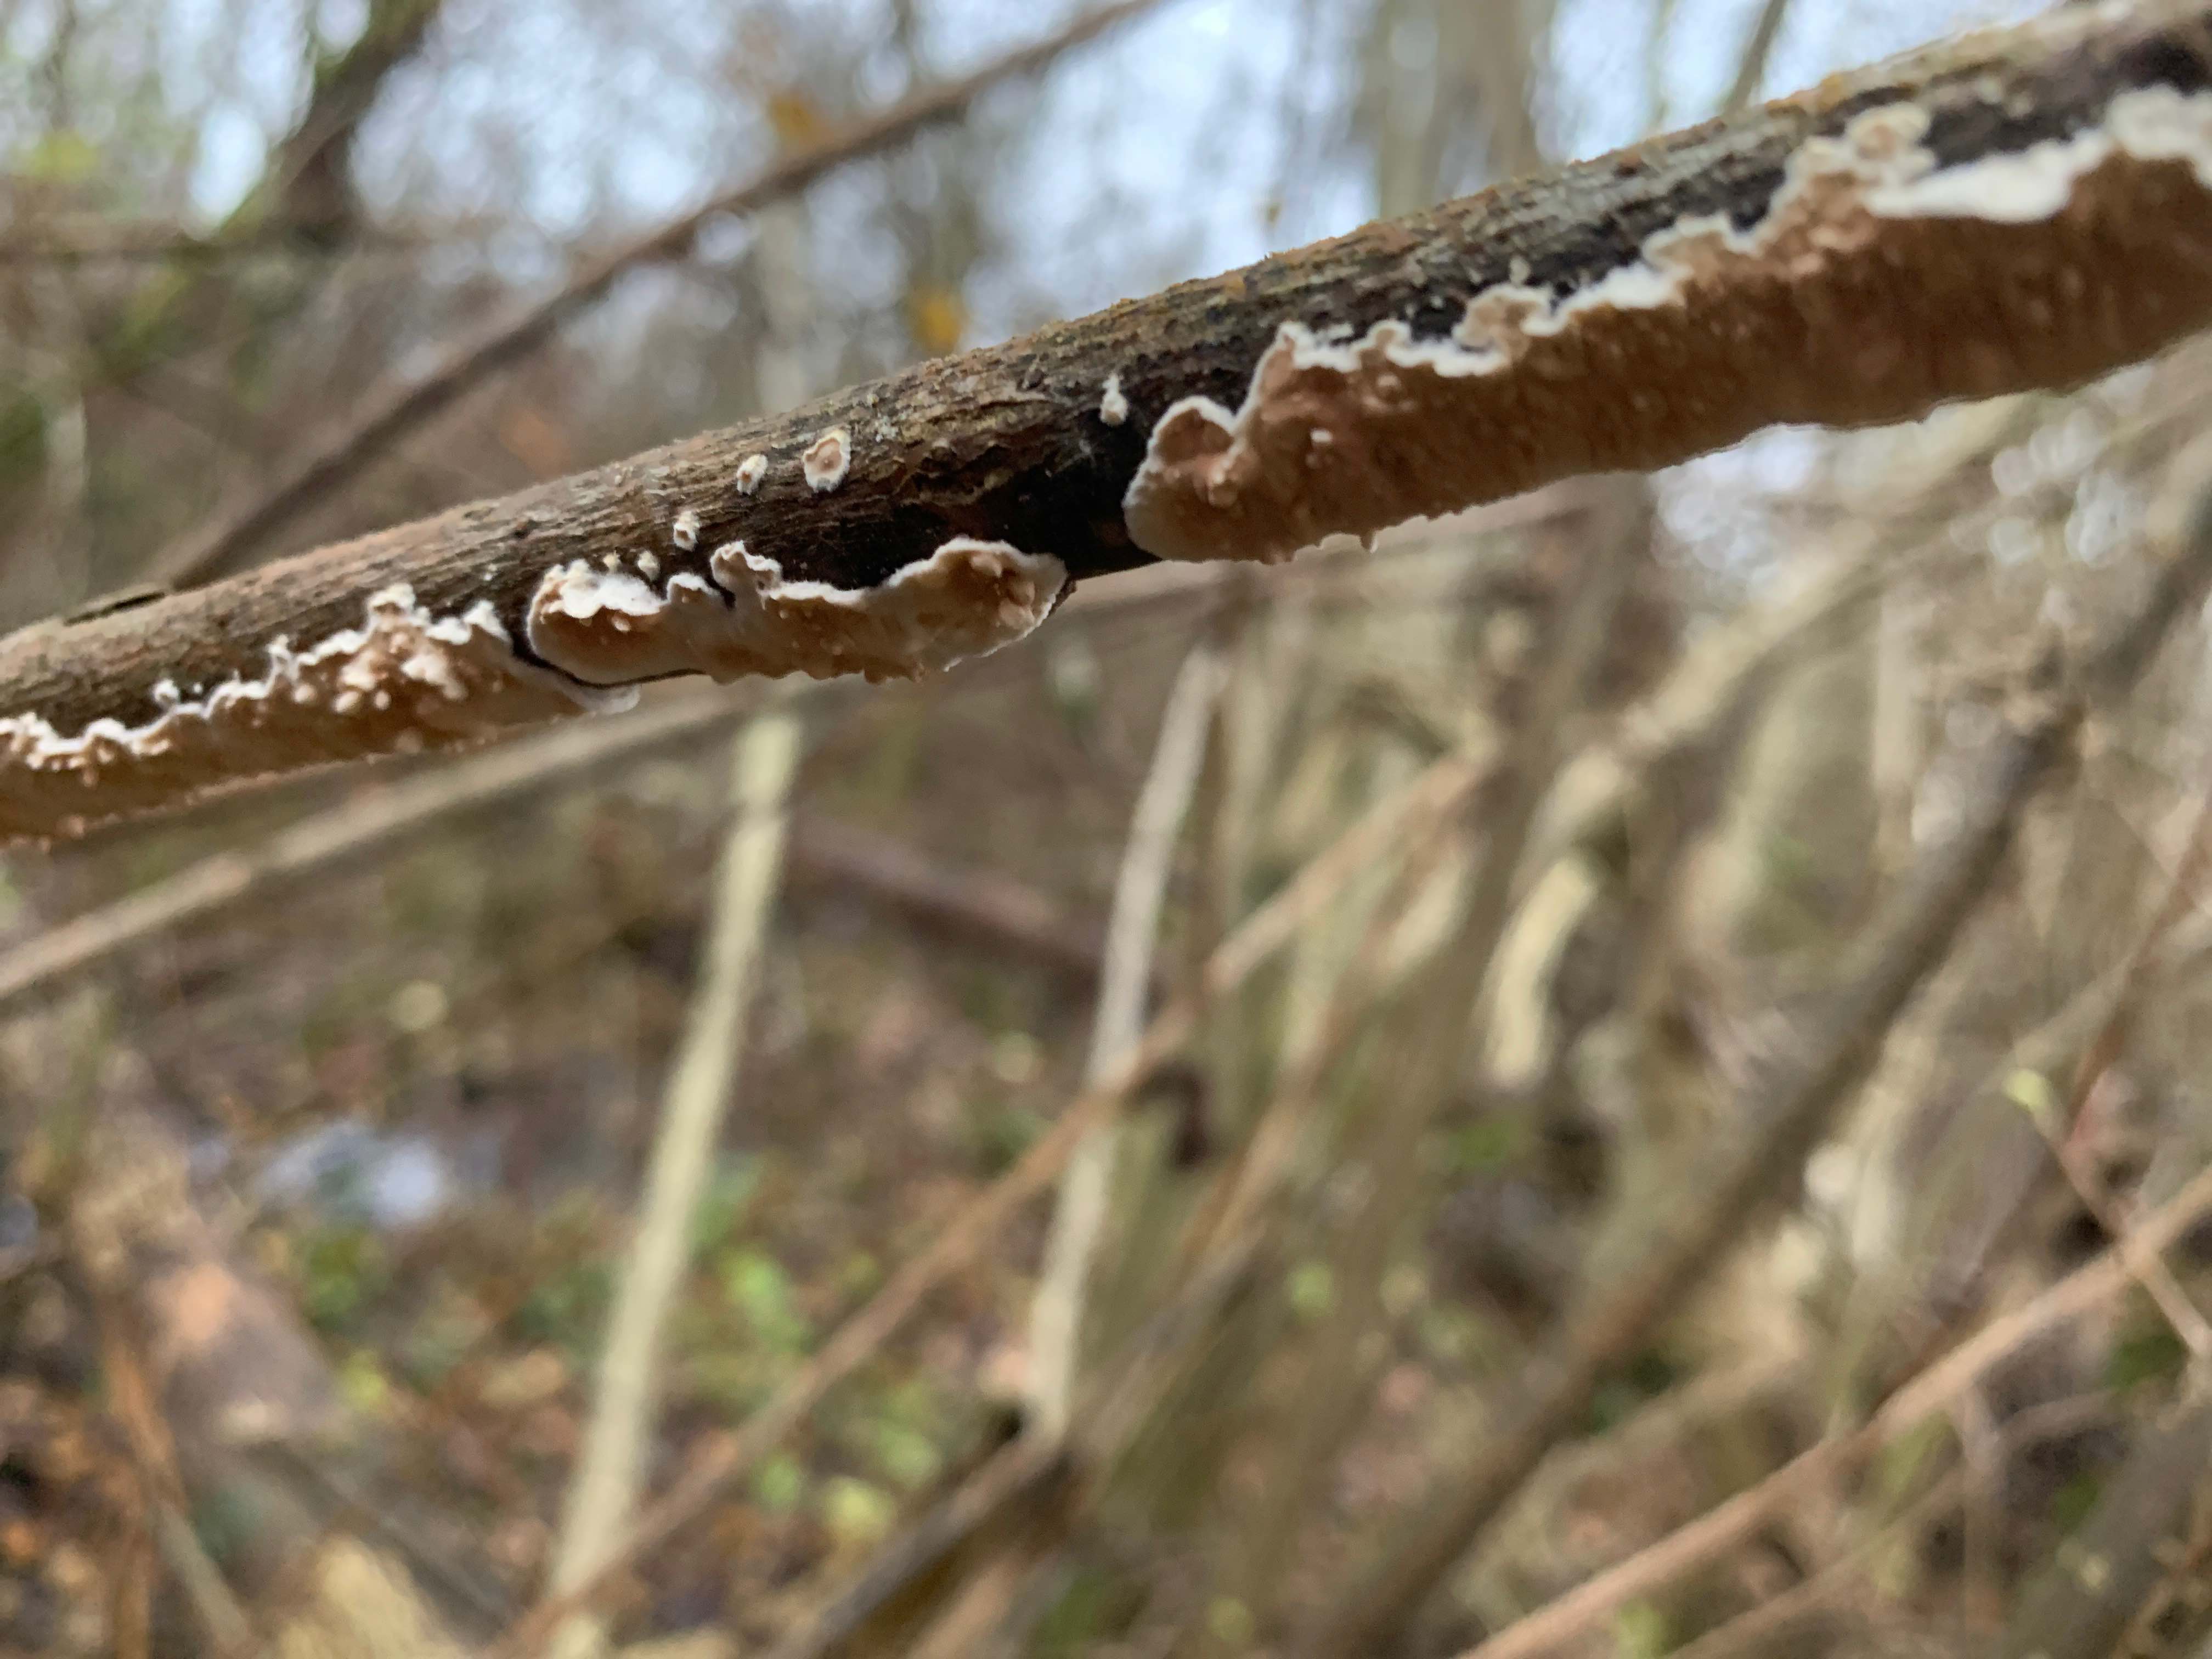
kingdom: Fungi
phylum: Basidiomycota
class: Agaricomycetes
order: Polyporales
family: Irpicaceae
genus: Byssomerulius
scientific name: Byssomerulius corium
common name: læder-åresvamp
